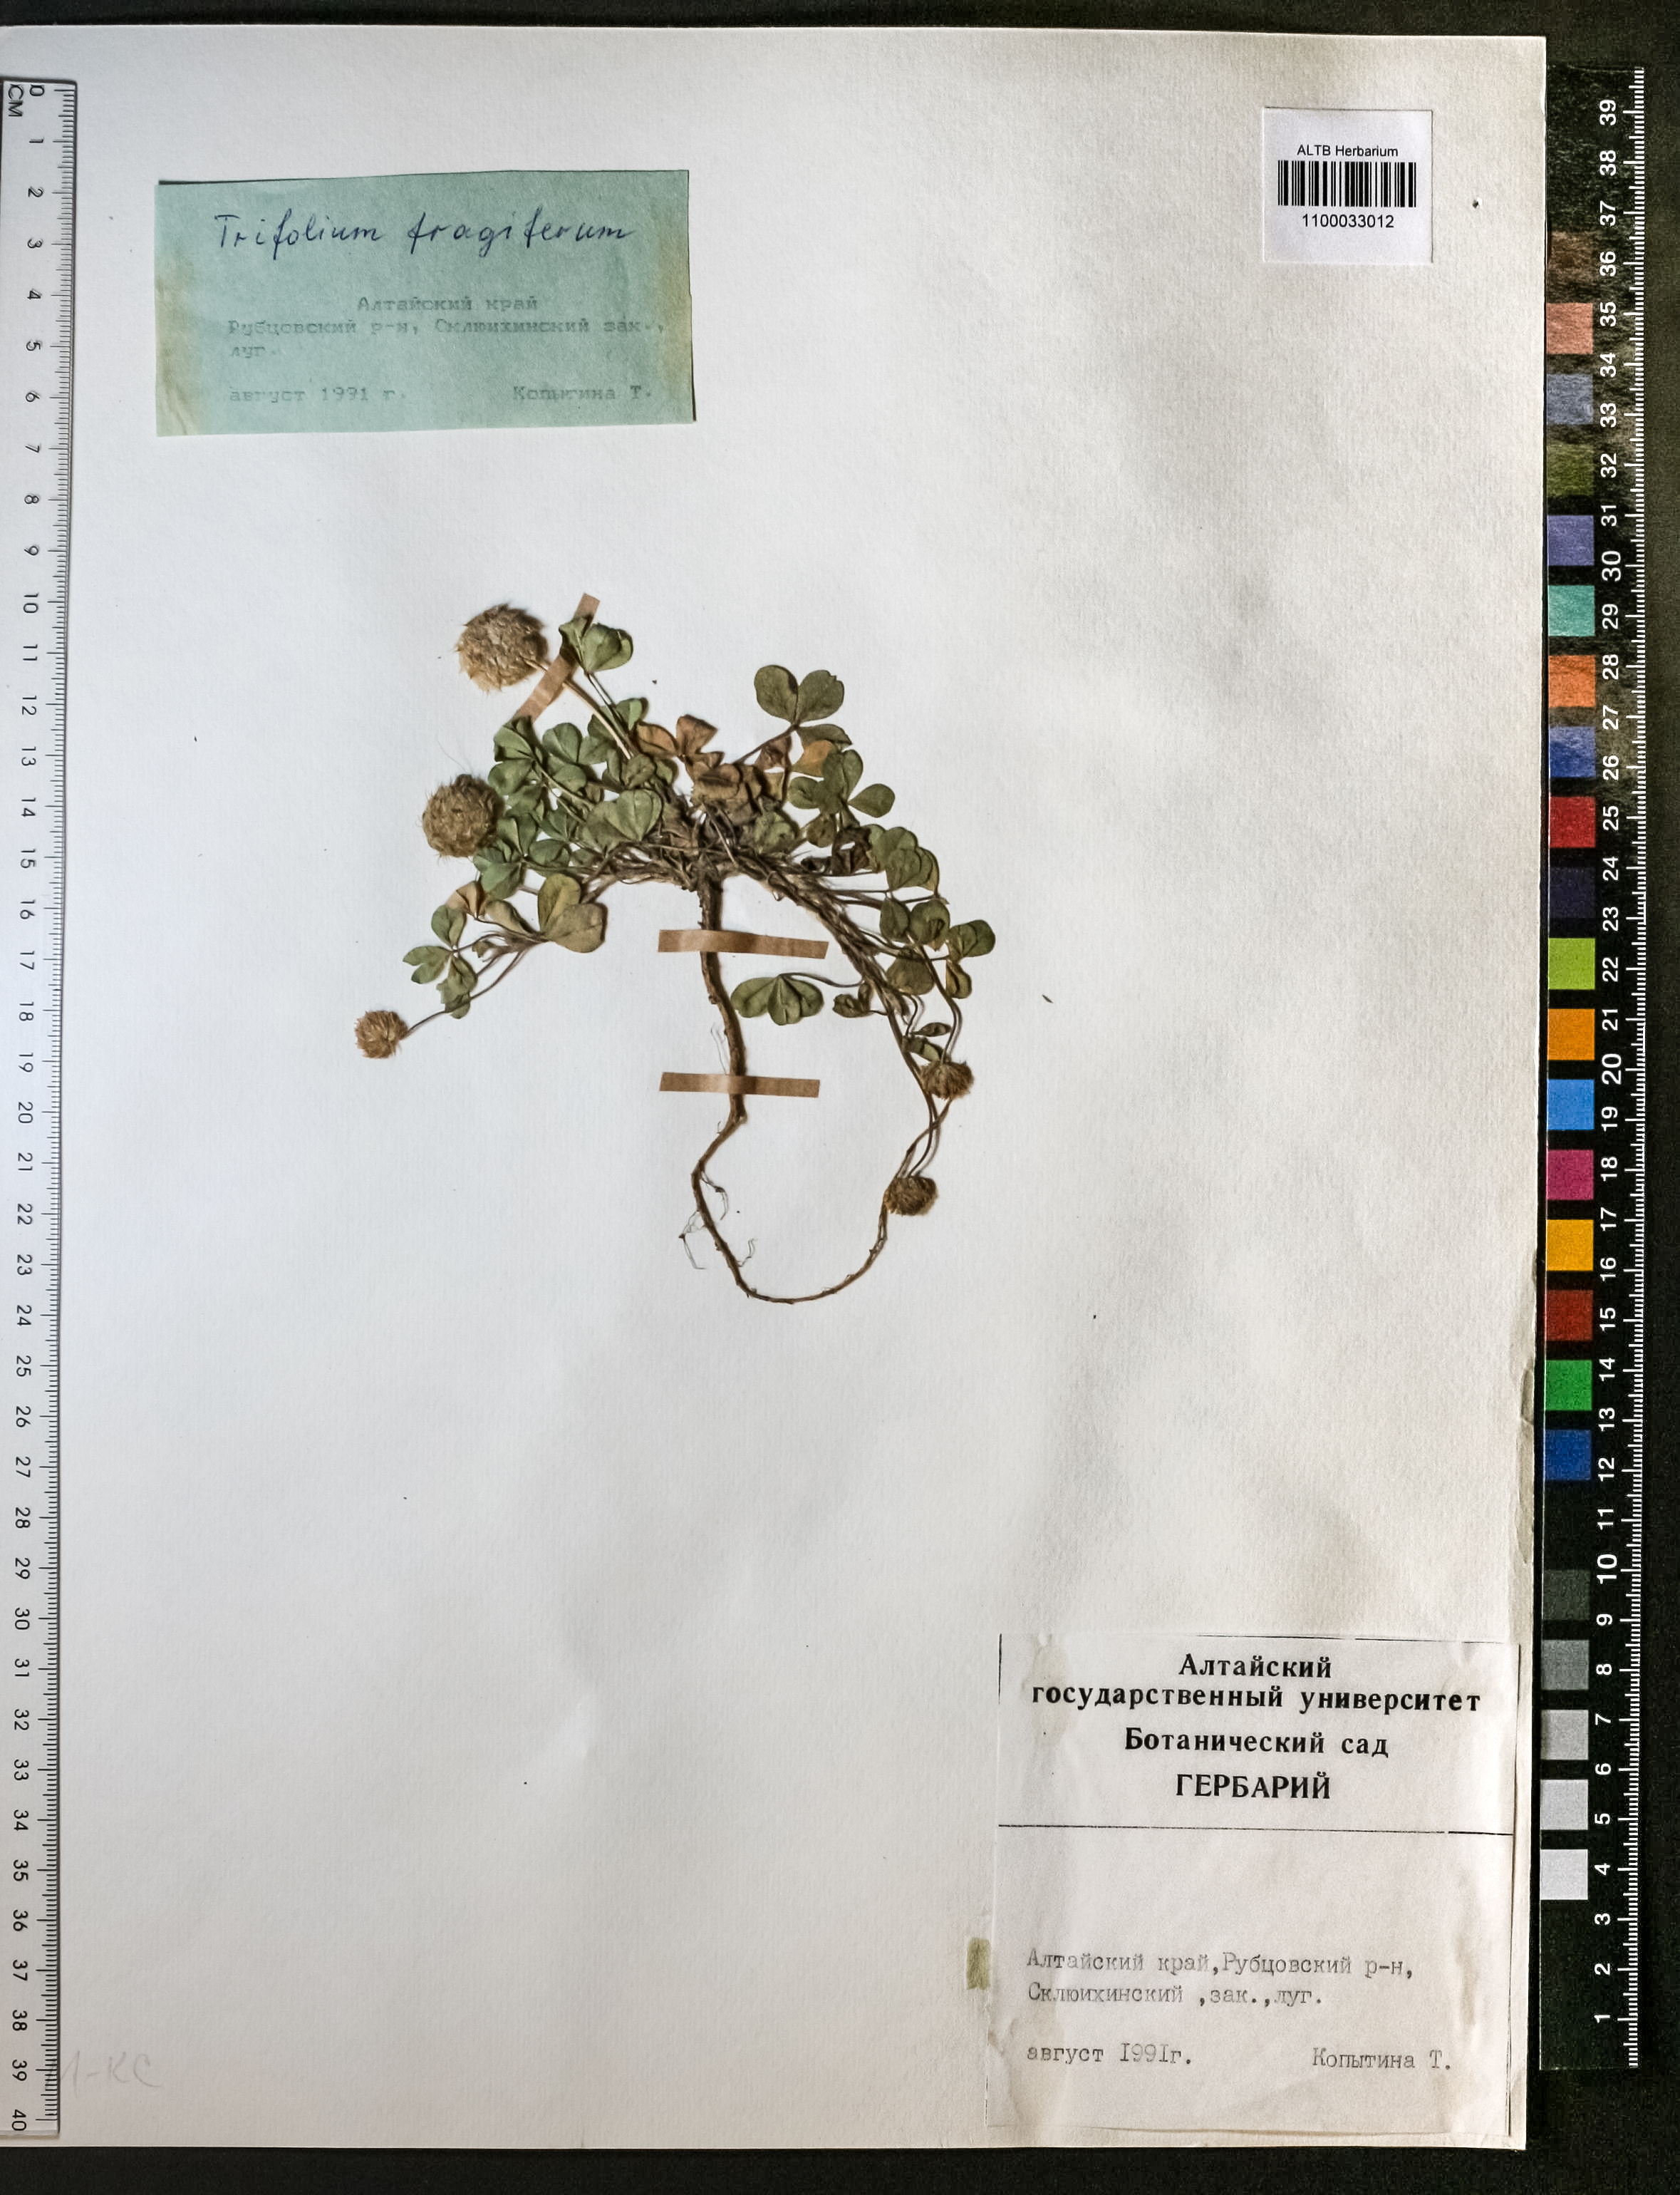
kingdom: Plantae
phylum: Tracheophyta
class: Magnoliopsida
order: Fabales
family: Fabaceae
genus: Trifolium
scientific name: Trifolium fragiferum
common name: Strawberry clover
